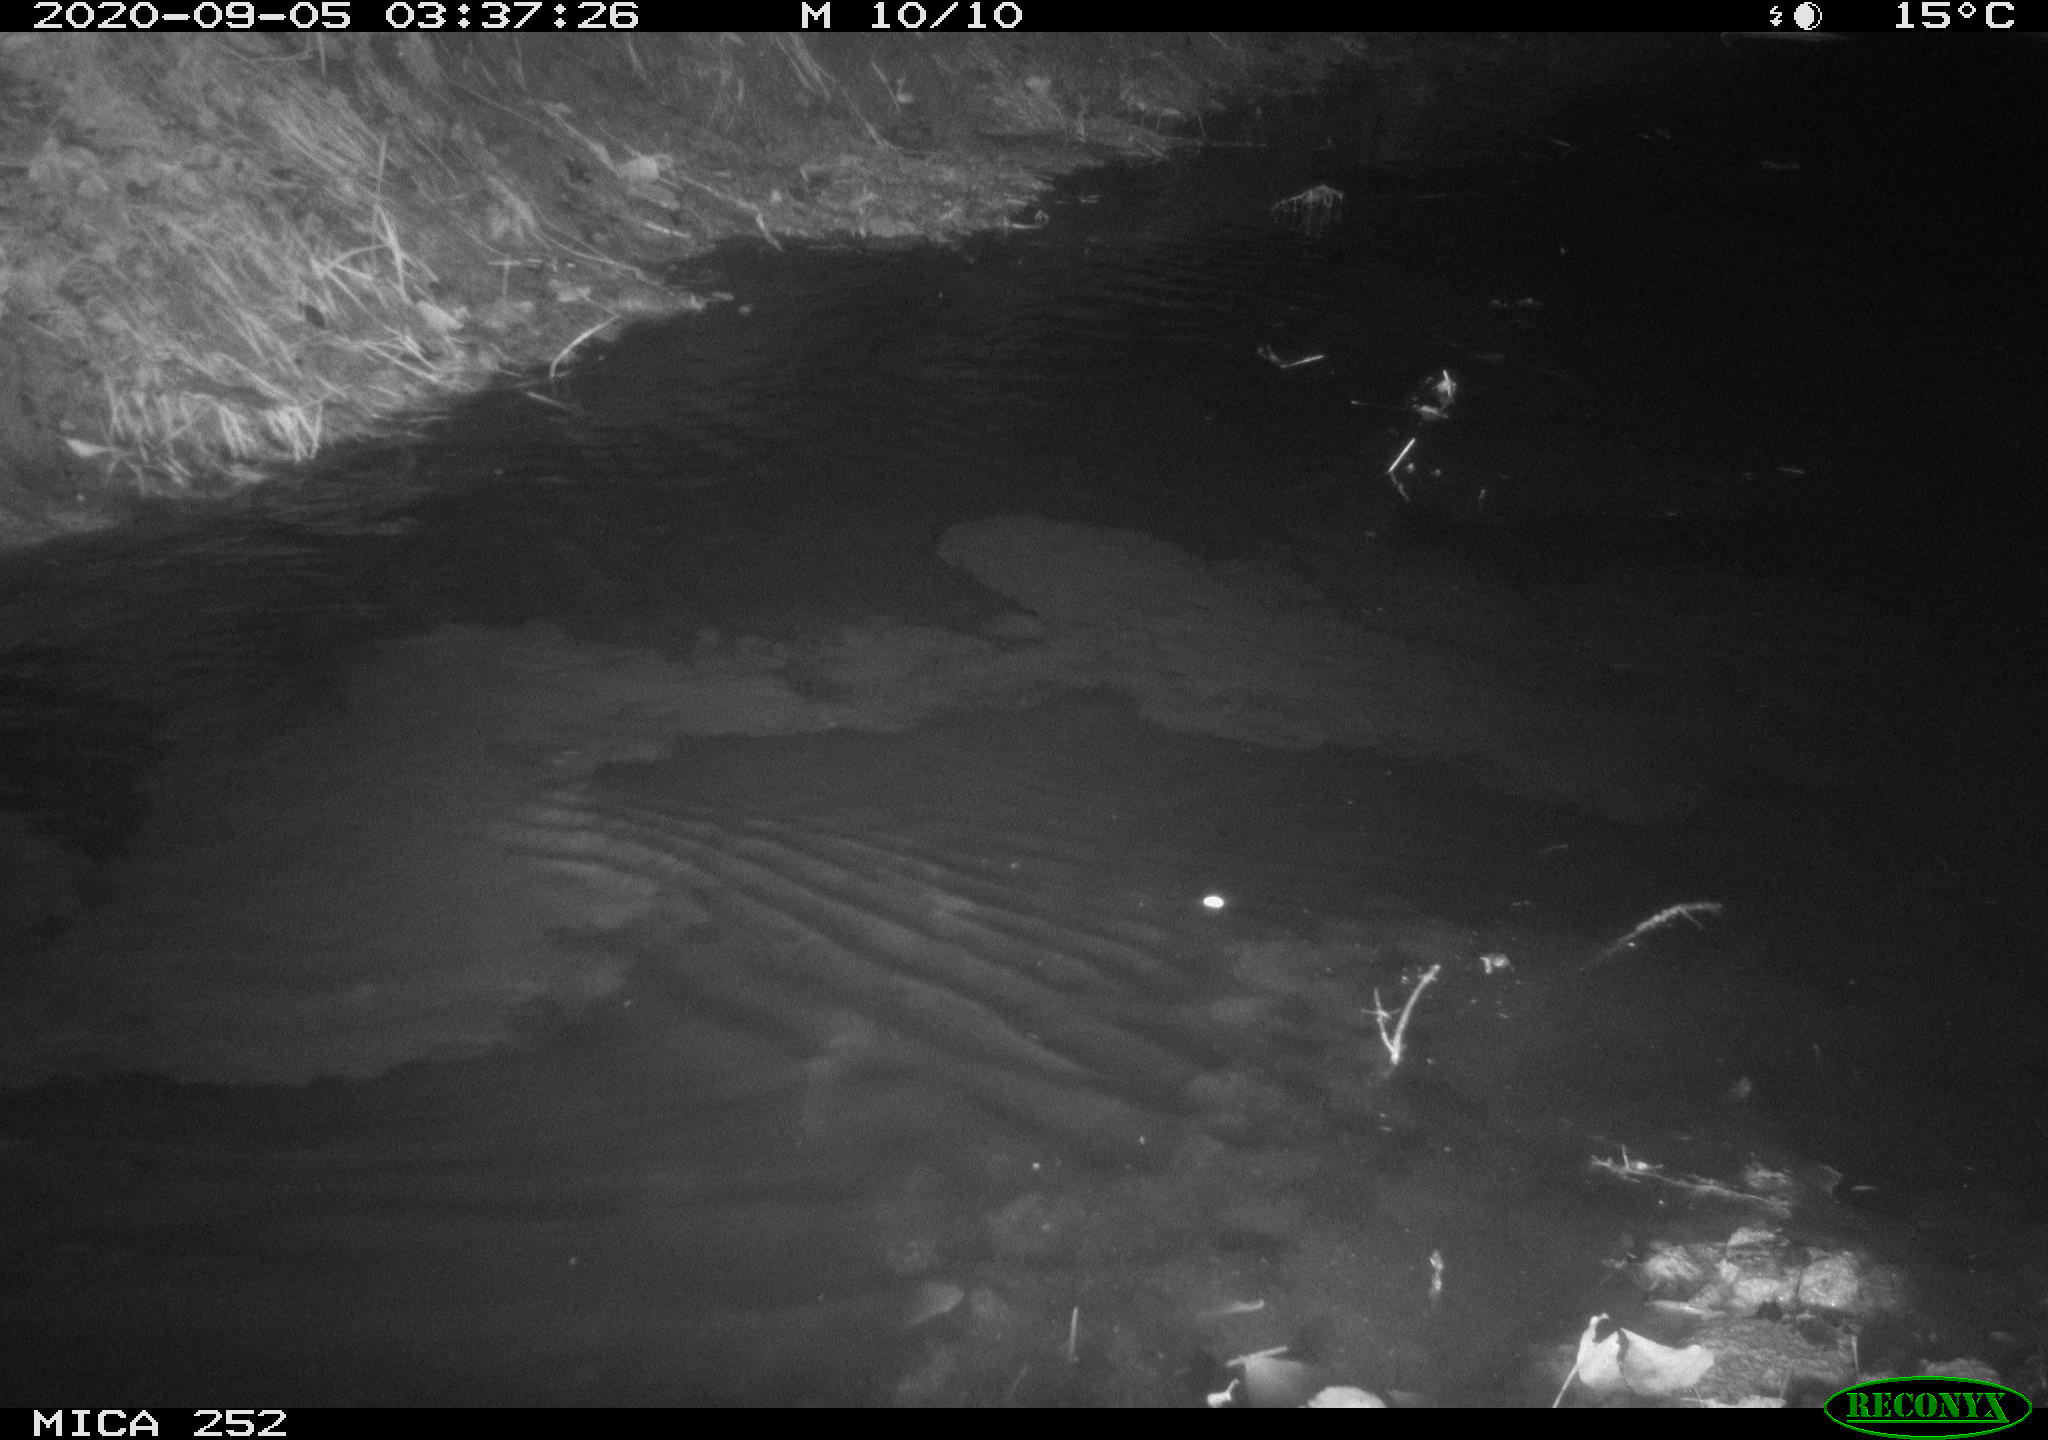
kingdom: Animalia
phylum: Chordata
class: Mammalia
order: Rodentia
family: Castoridae
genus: Castor
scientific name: Castor fiber
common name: Eurasian beaver
